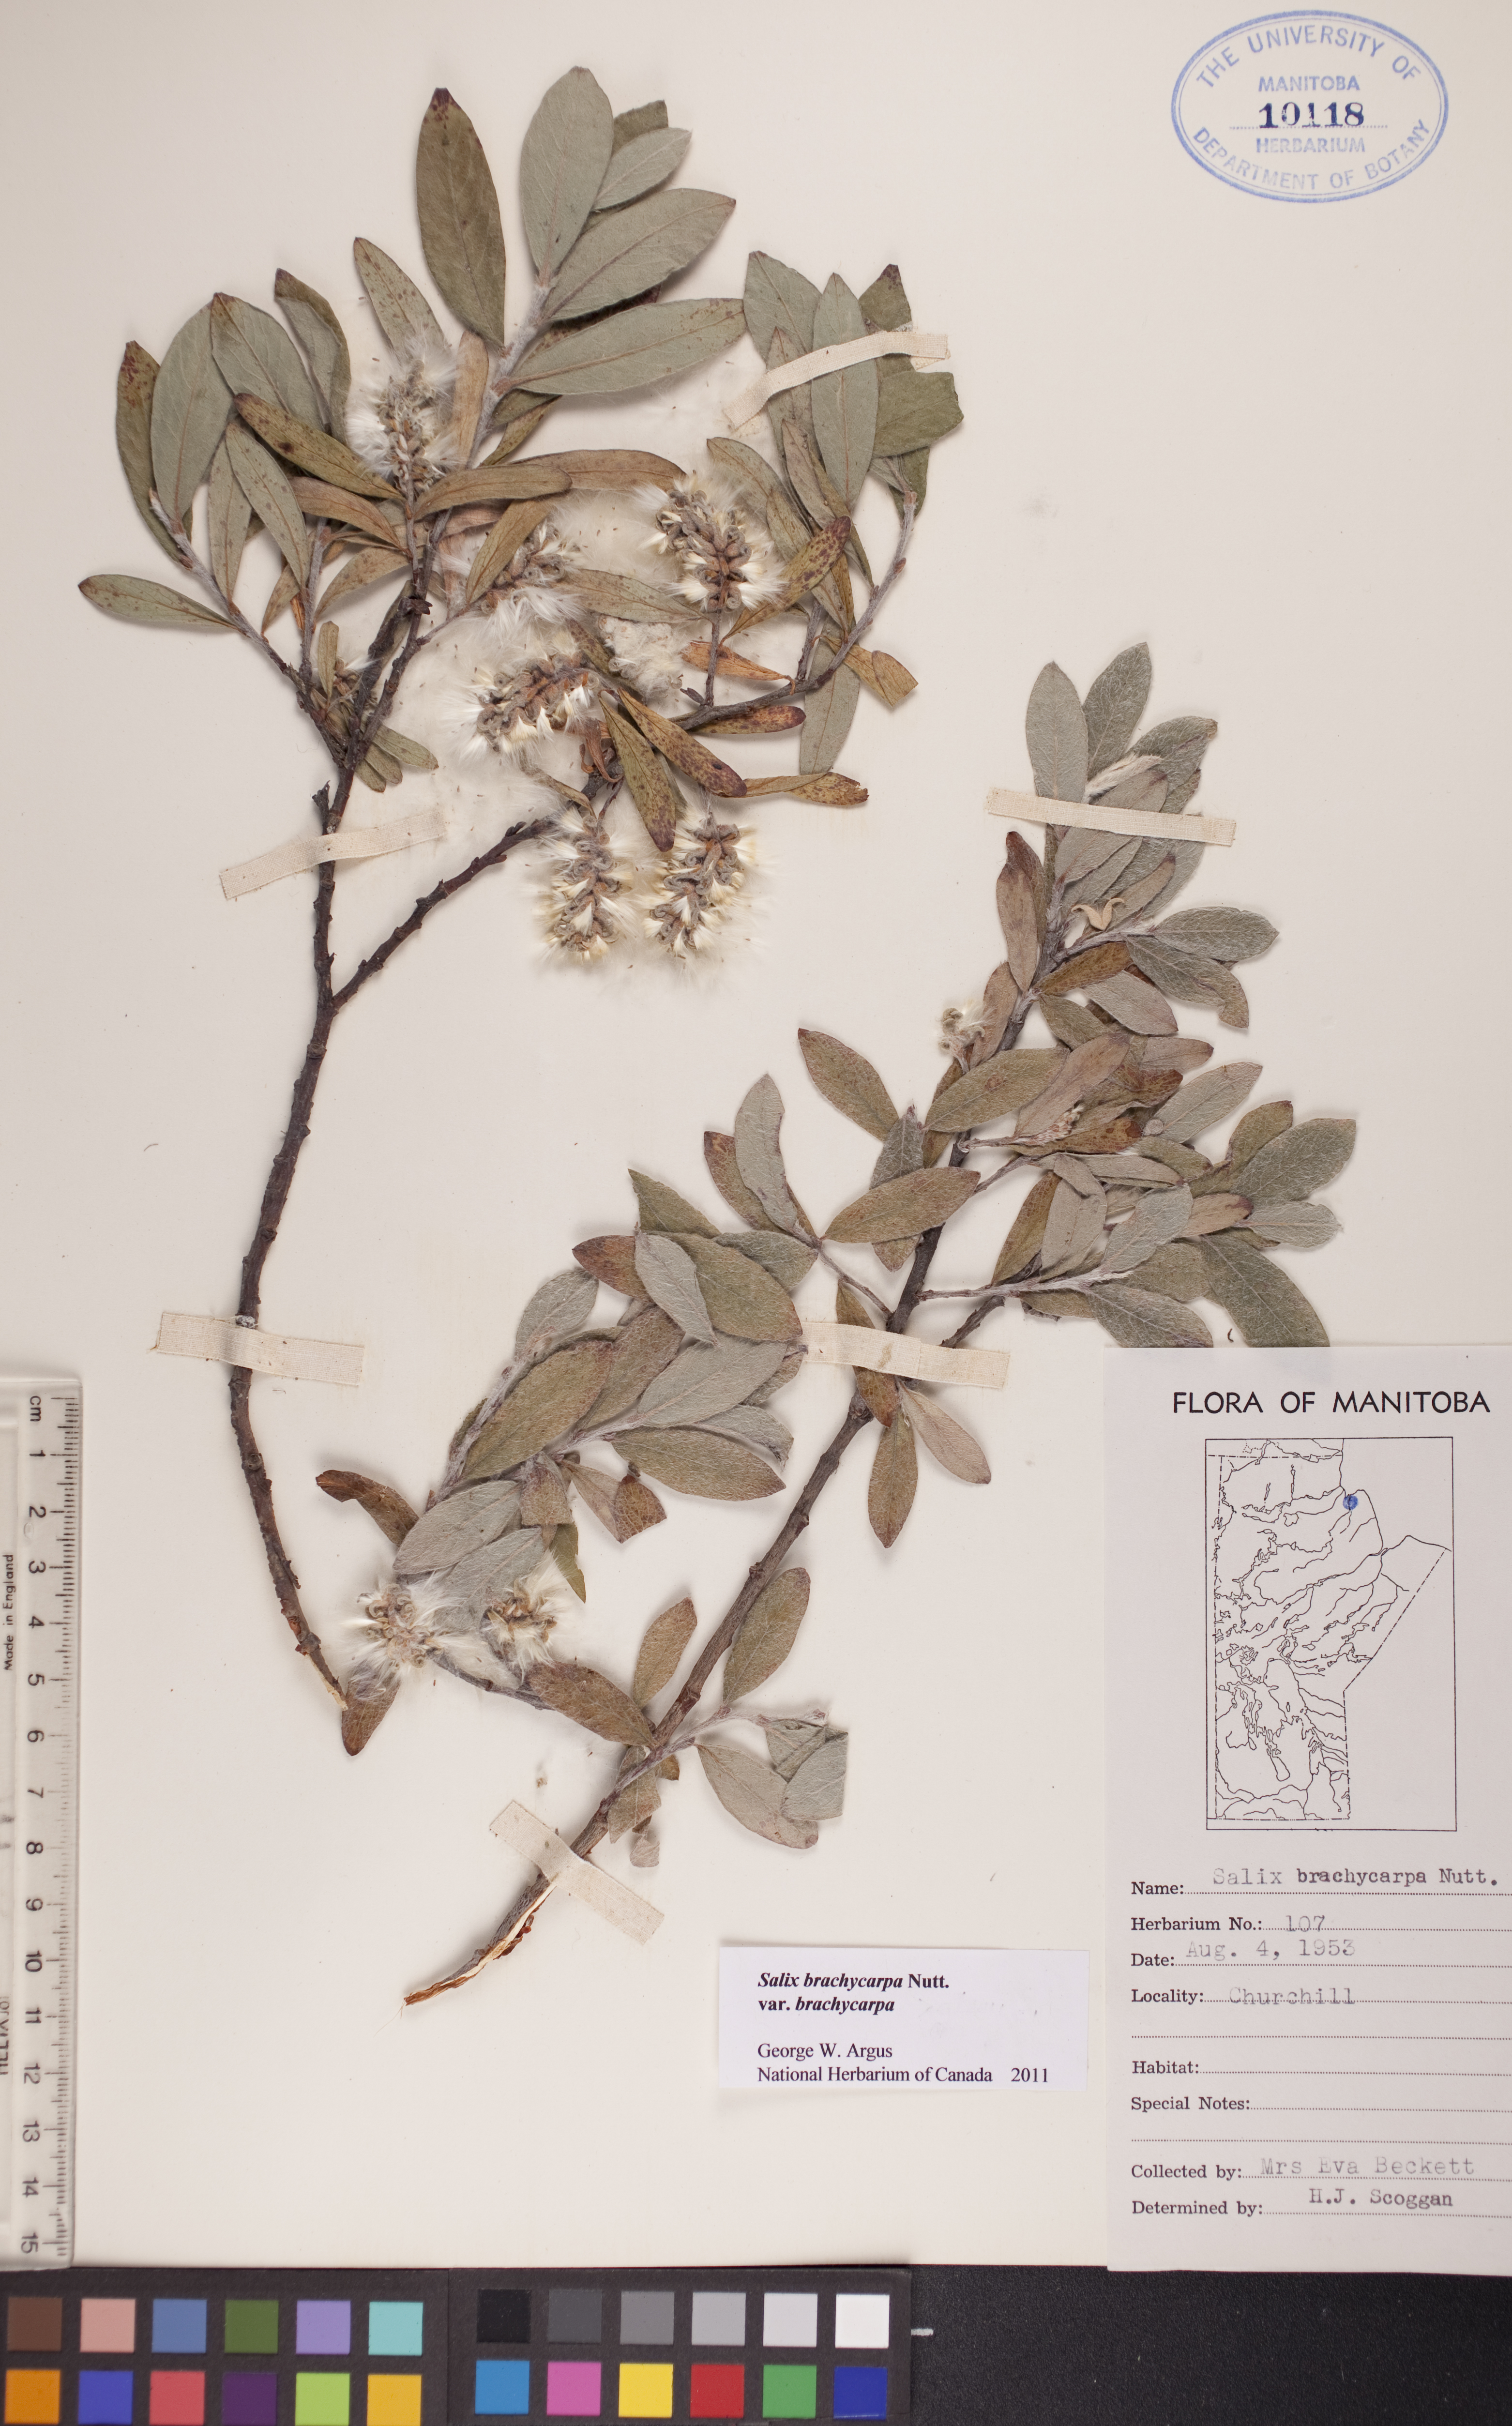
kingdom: Plantae
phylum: Tracheophyta
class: Magnoliopsida
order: Malpighiales
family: Salicaceae
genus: Salix
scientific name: Salix brachycarpa
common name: Barren-ground willow
